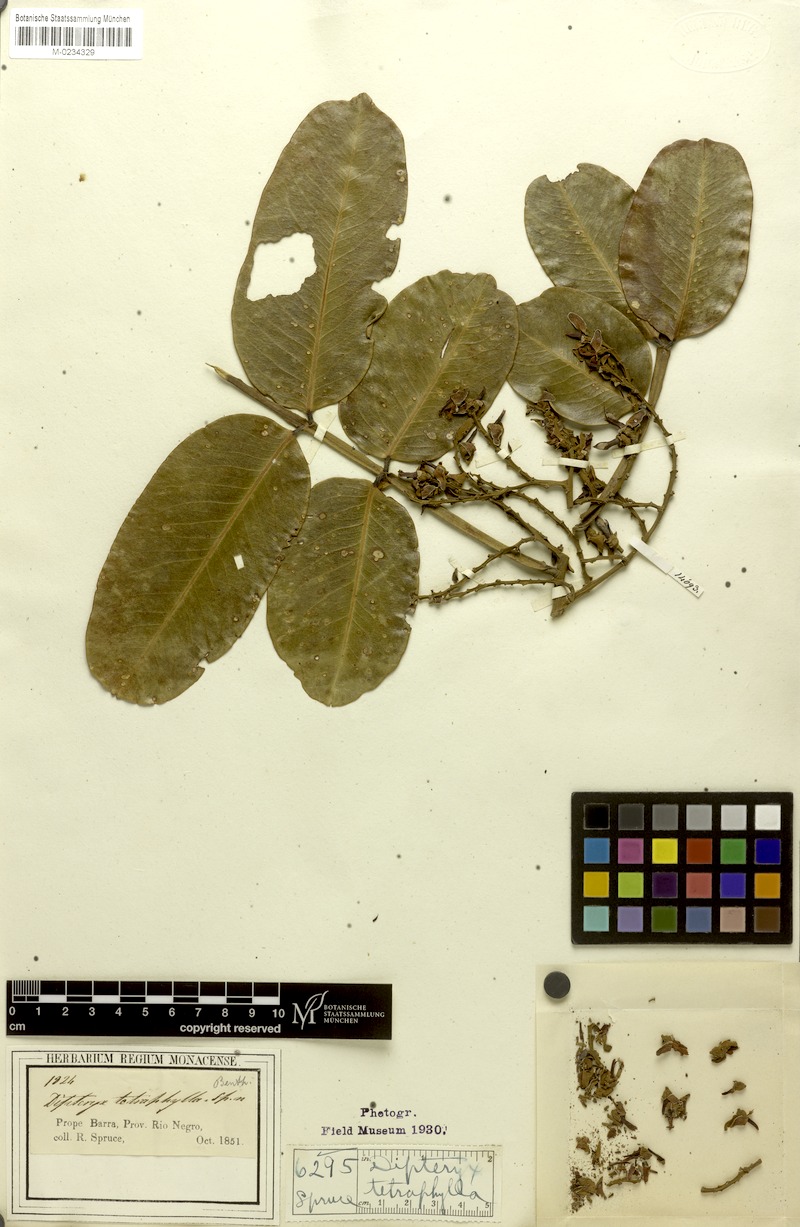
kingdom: Plantae
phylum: Tracheophyta
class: Magnoliopsida
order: Fabales
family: Fabaceae
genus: Dipteryx
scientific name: Dipteryx odorata
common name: Tonka
